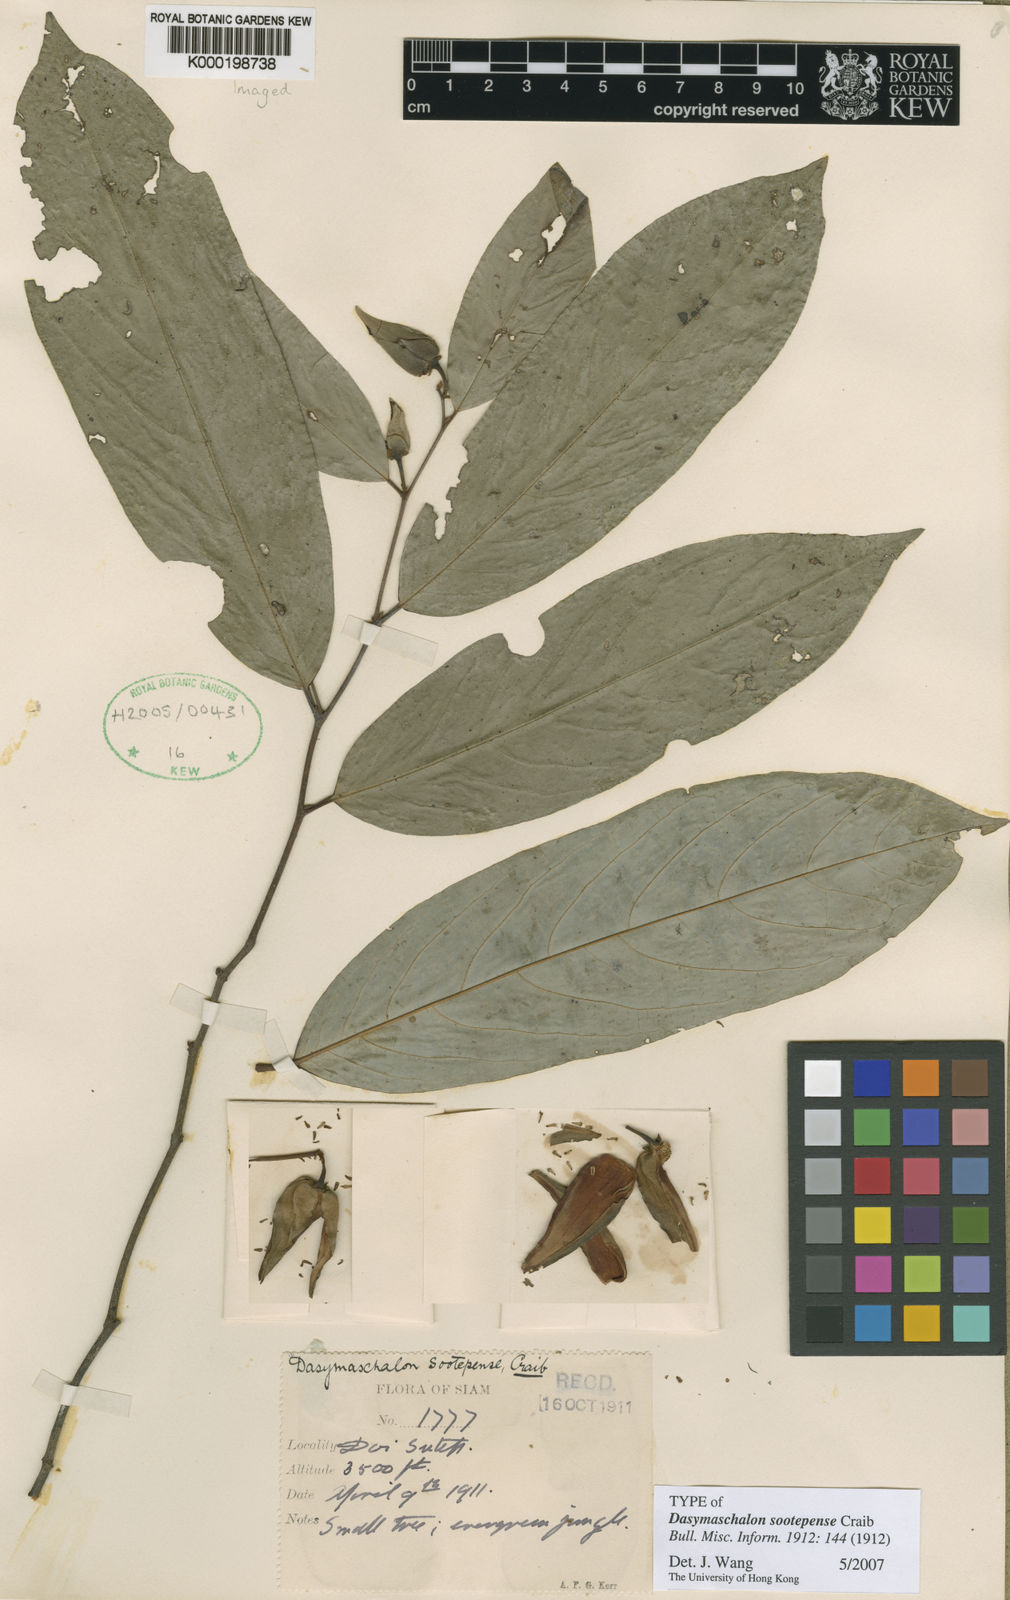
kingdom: Plantae
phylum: Tracheophyta
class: Magnoliopsida
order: Magnoliales
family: Annonaceae
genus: Dasymaschalon
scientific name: Dasymaschalon sootepense
